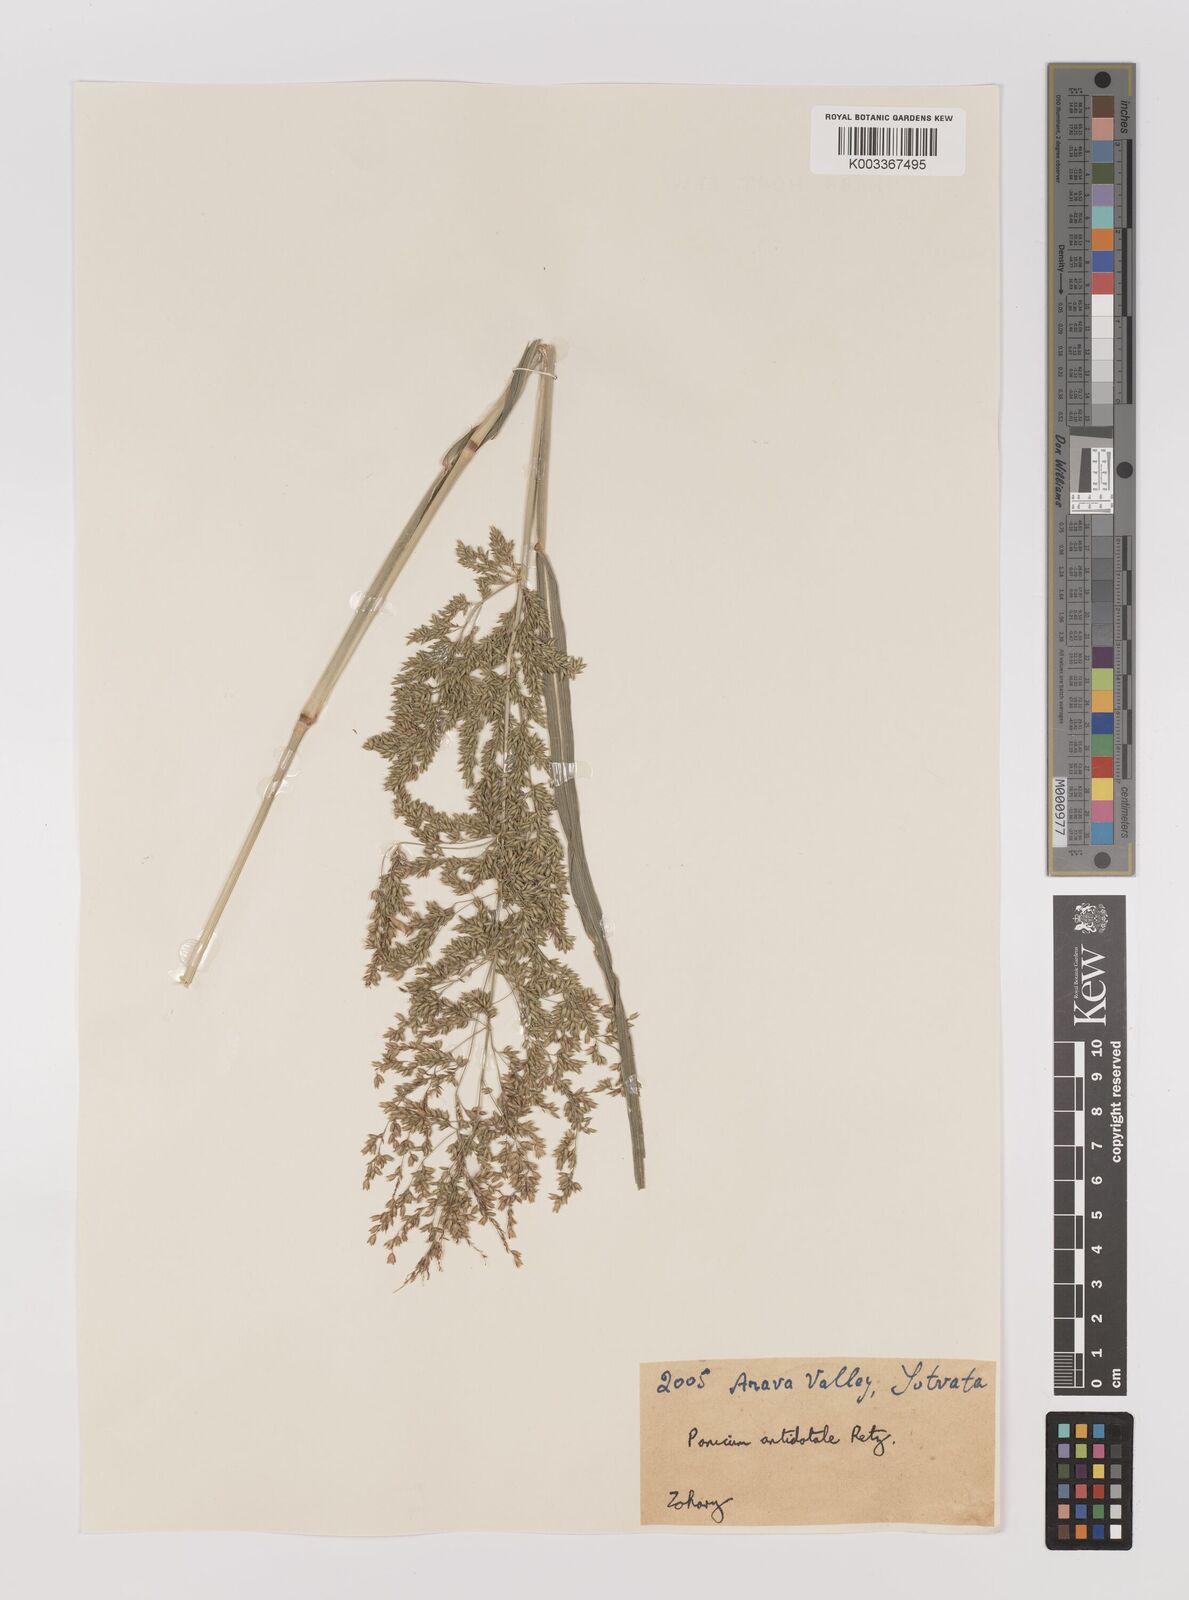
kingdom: Plantae
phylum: Tracheophyta
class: Liliopsida
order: Poales
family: Poaceae
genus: Panicum
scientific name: Panicum antidotale
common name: Blue panicum
